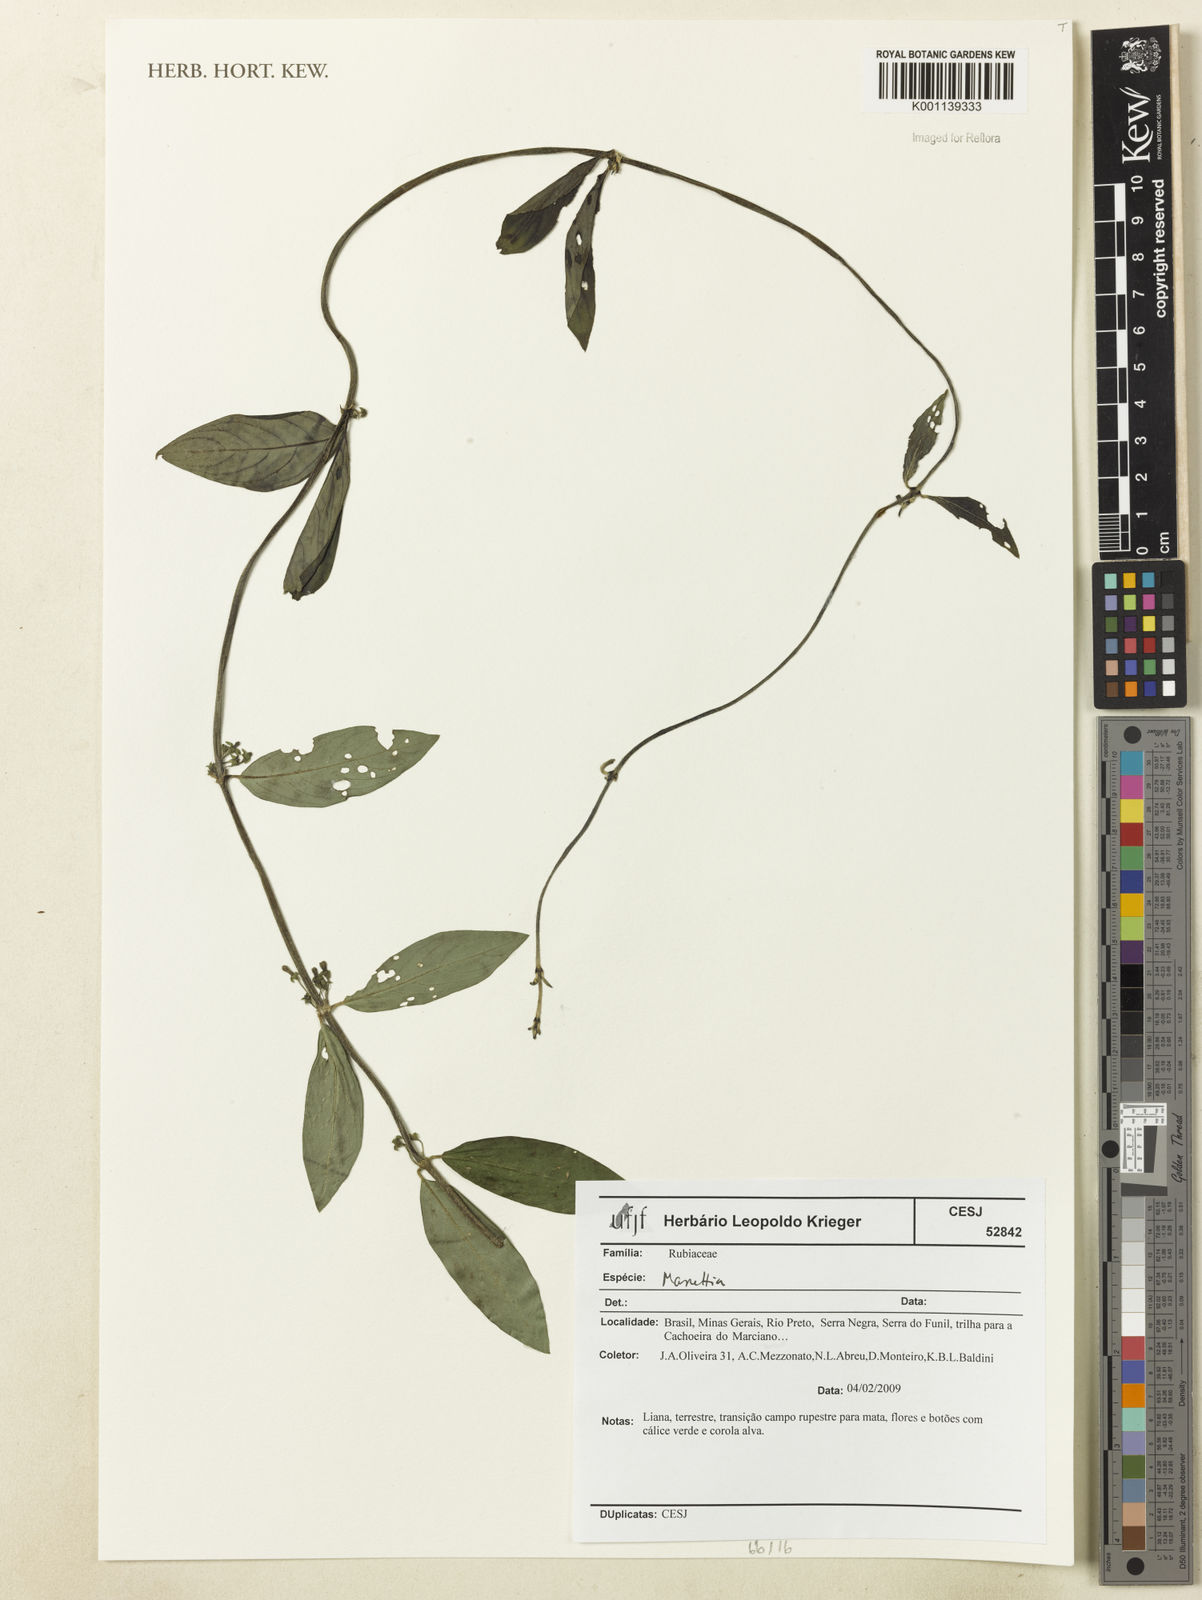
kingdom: Plantae
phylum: Tracheophyta
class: Magnoliopsida
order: Gentianales
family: Rubiaceae
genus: Manettia
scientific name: Manettia
